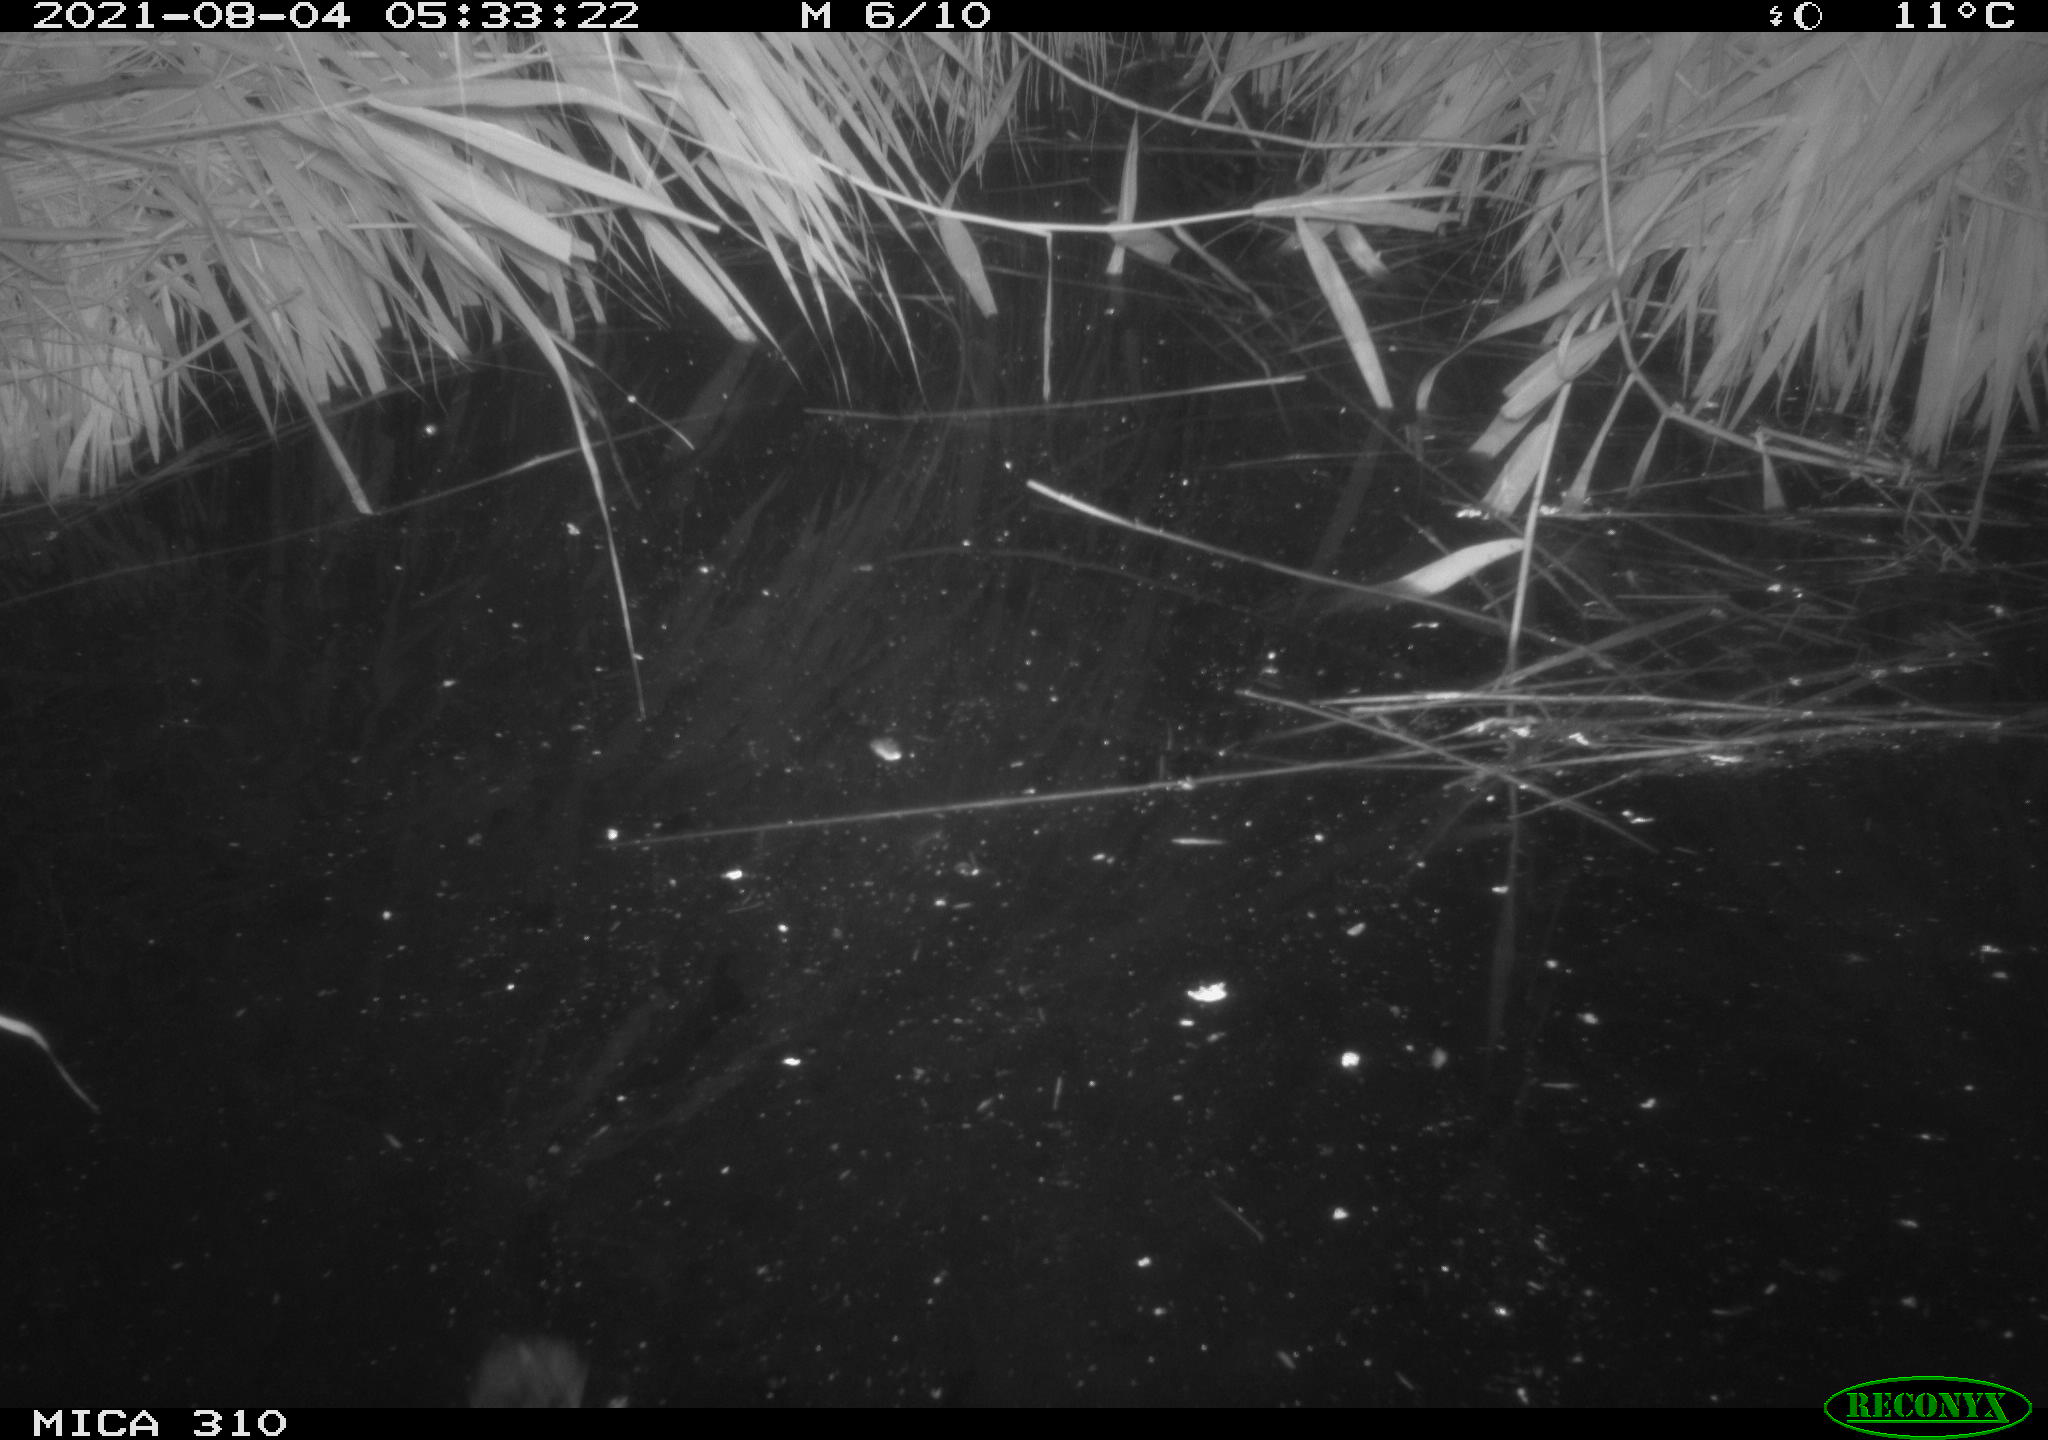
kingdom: Animalia
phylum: Chordata
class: Aves
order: Gruiformes
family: Rallidae
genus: Gallinula
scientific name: Gallinula chloropus
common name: Common moorhen
